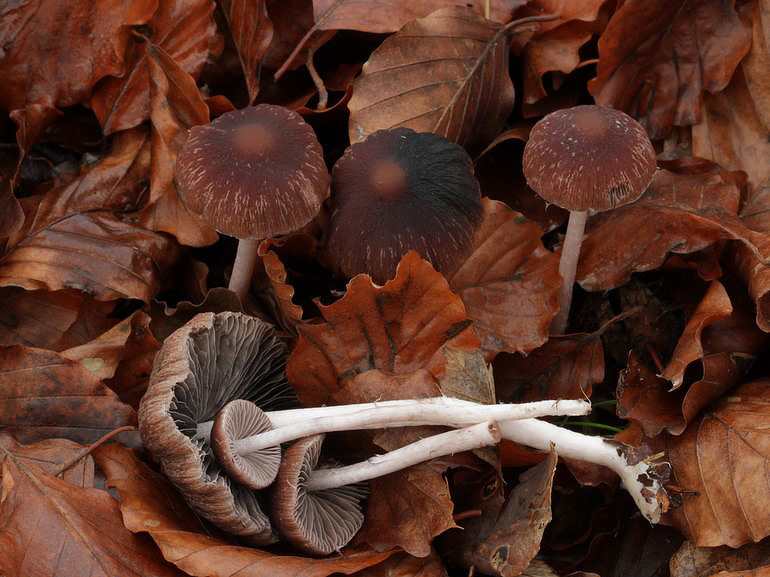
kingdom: Fungi
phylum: Basidiomycota
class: Agaricomycetes
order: Agaricales
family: Psathyrellaceae
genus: Psathyrella
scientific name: Psathyrella bipellis
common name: vinrød mørkhat
